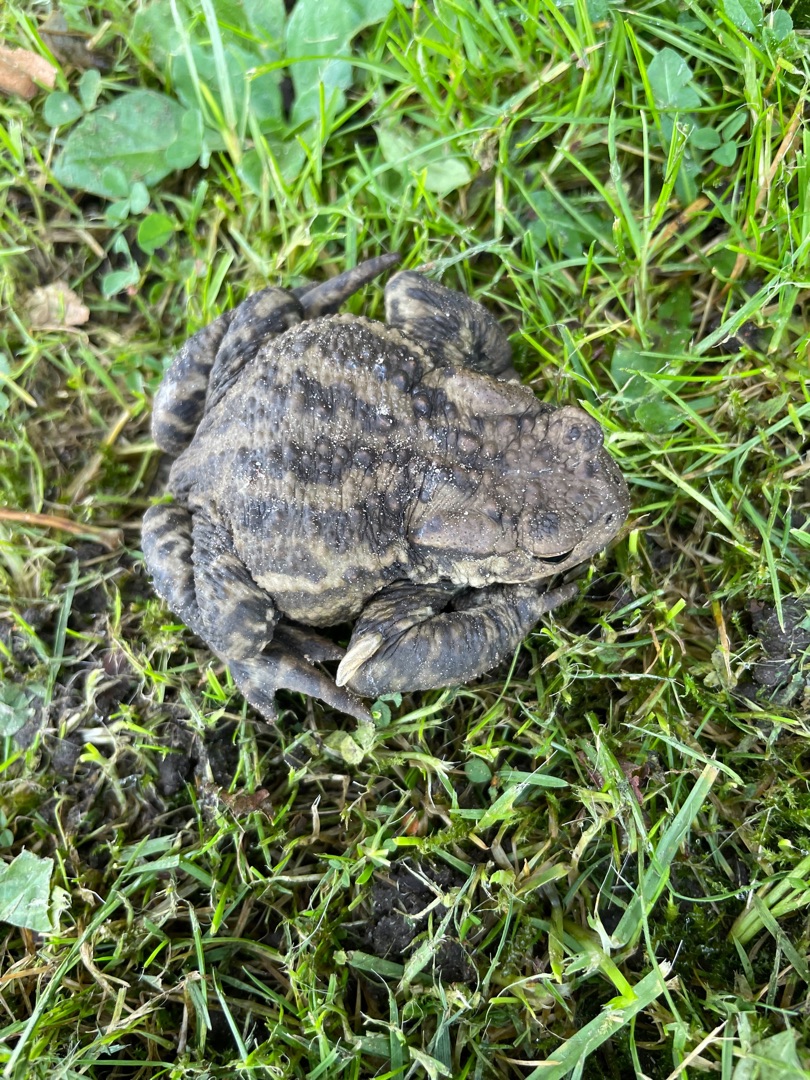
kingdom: Animalia
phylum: Chordata
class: Amphibia
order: Anura
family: Bufonidae
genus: Bufo
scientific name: Bufo bufo
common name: Skrubtudse
